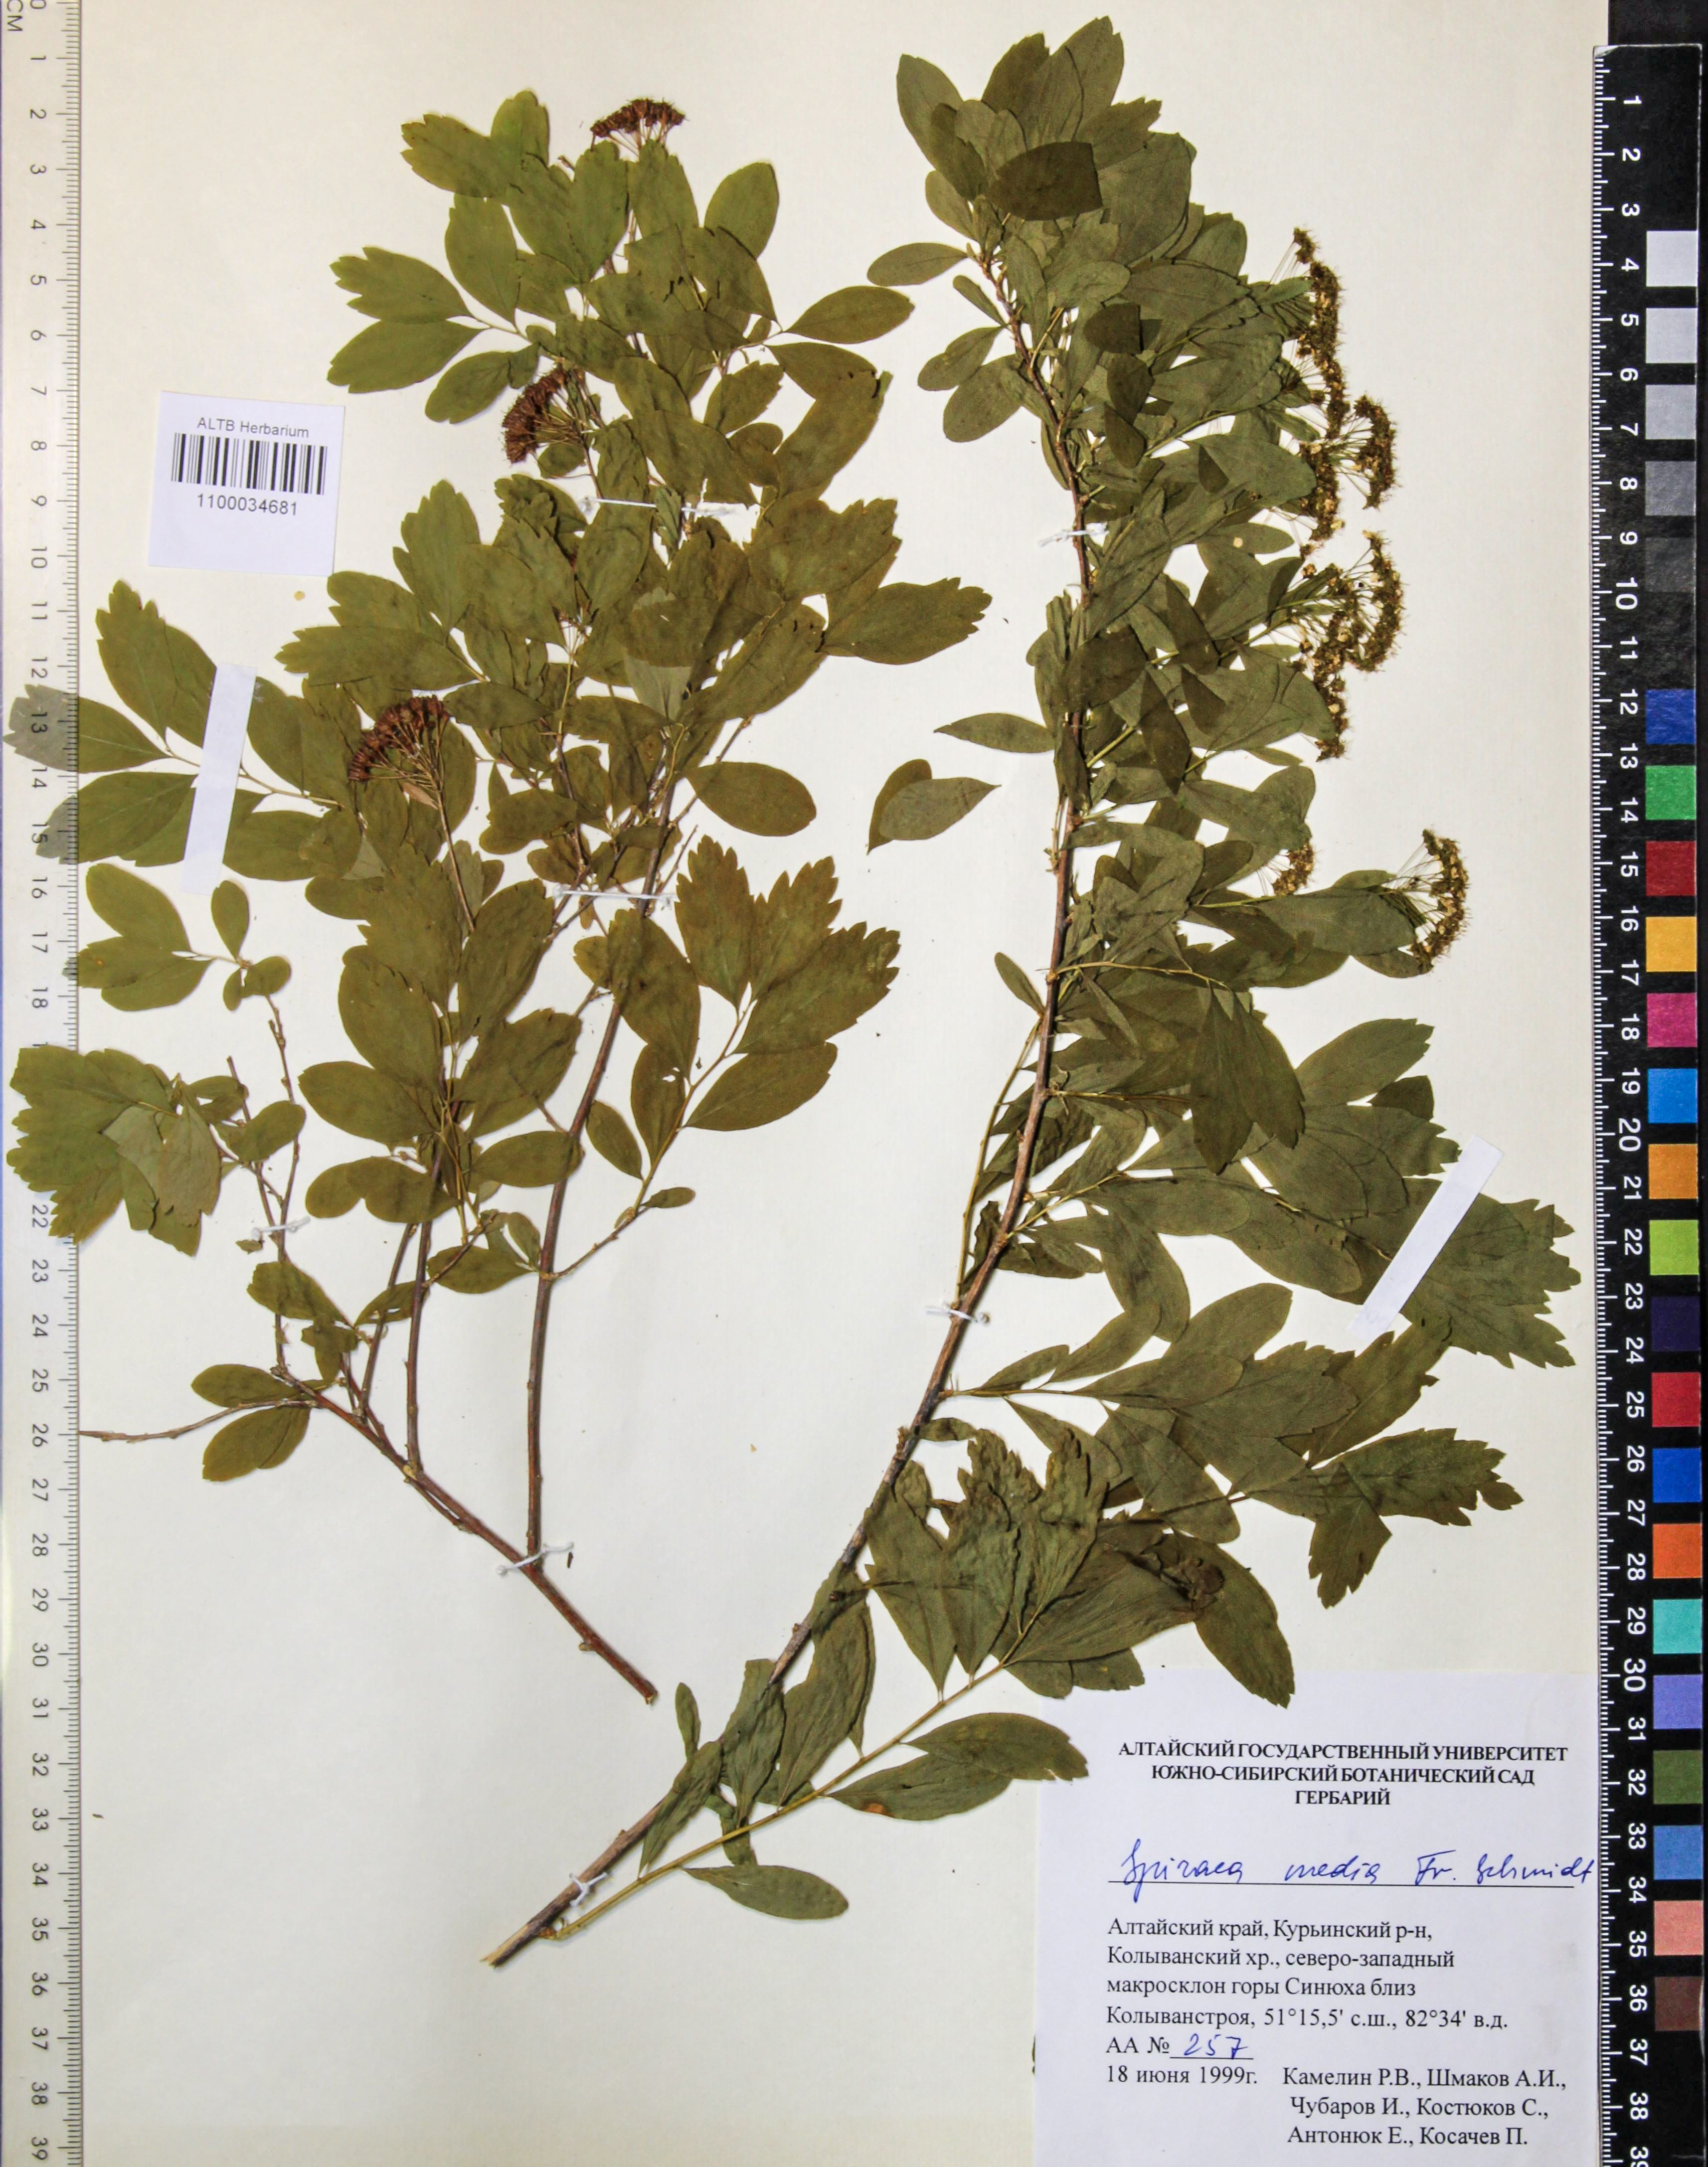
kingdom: Plantae
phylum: Tracheophyta
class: Magnoliopsida
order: Rosales
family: Rosaceae
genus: Spiraea
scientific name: Spiraea media
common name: Russian spiraea
